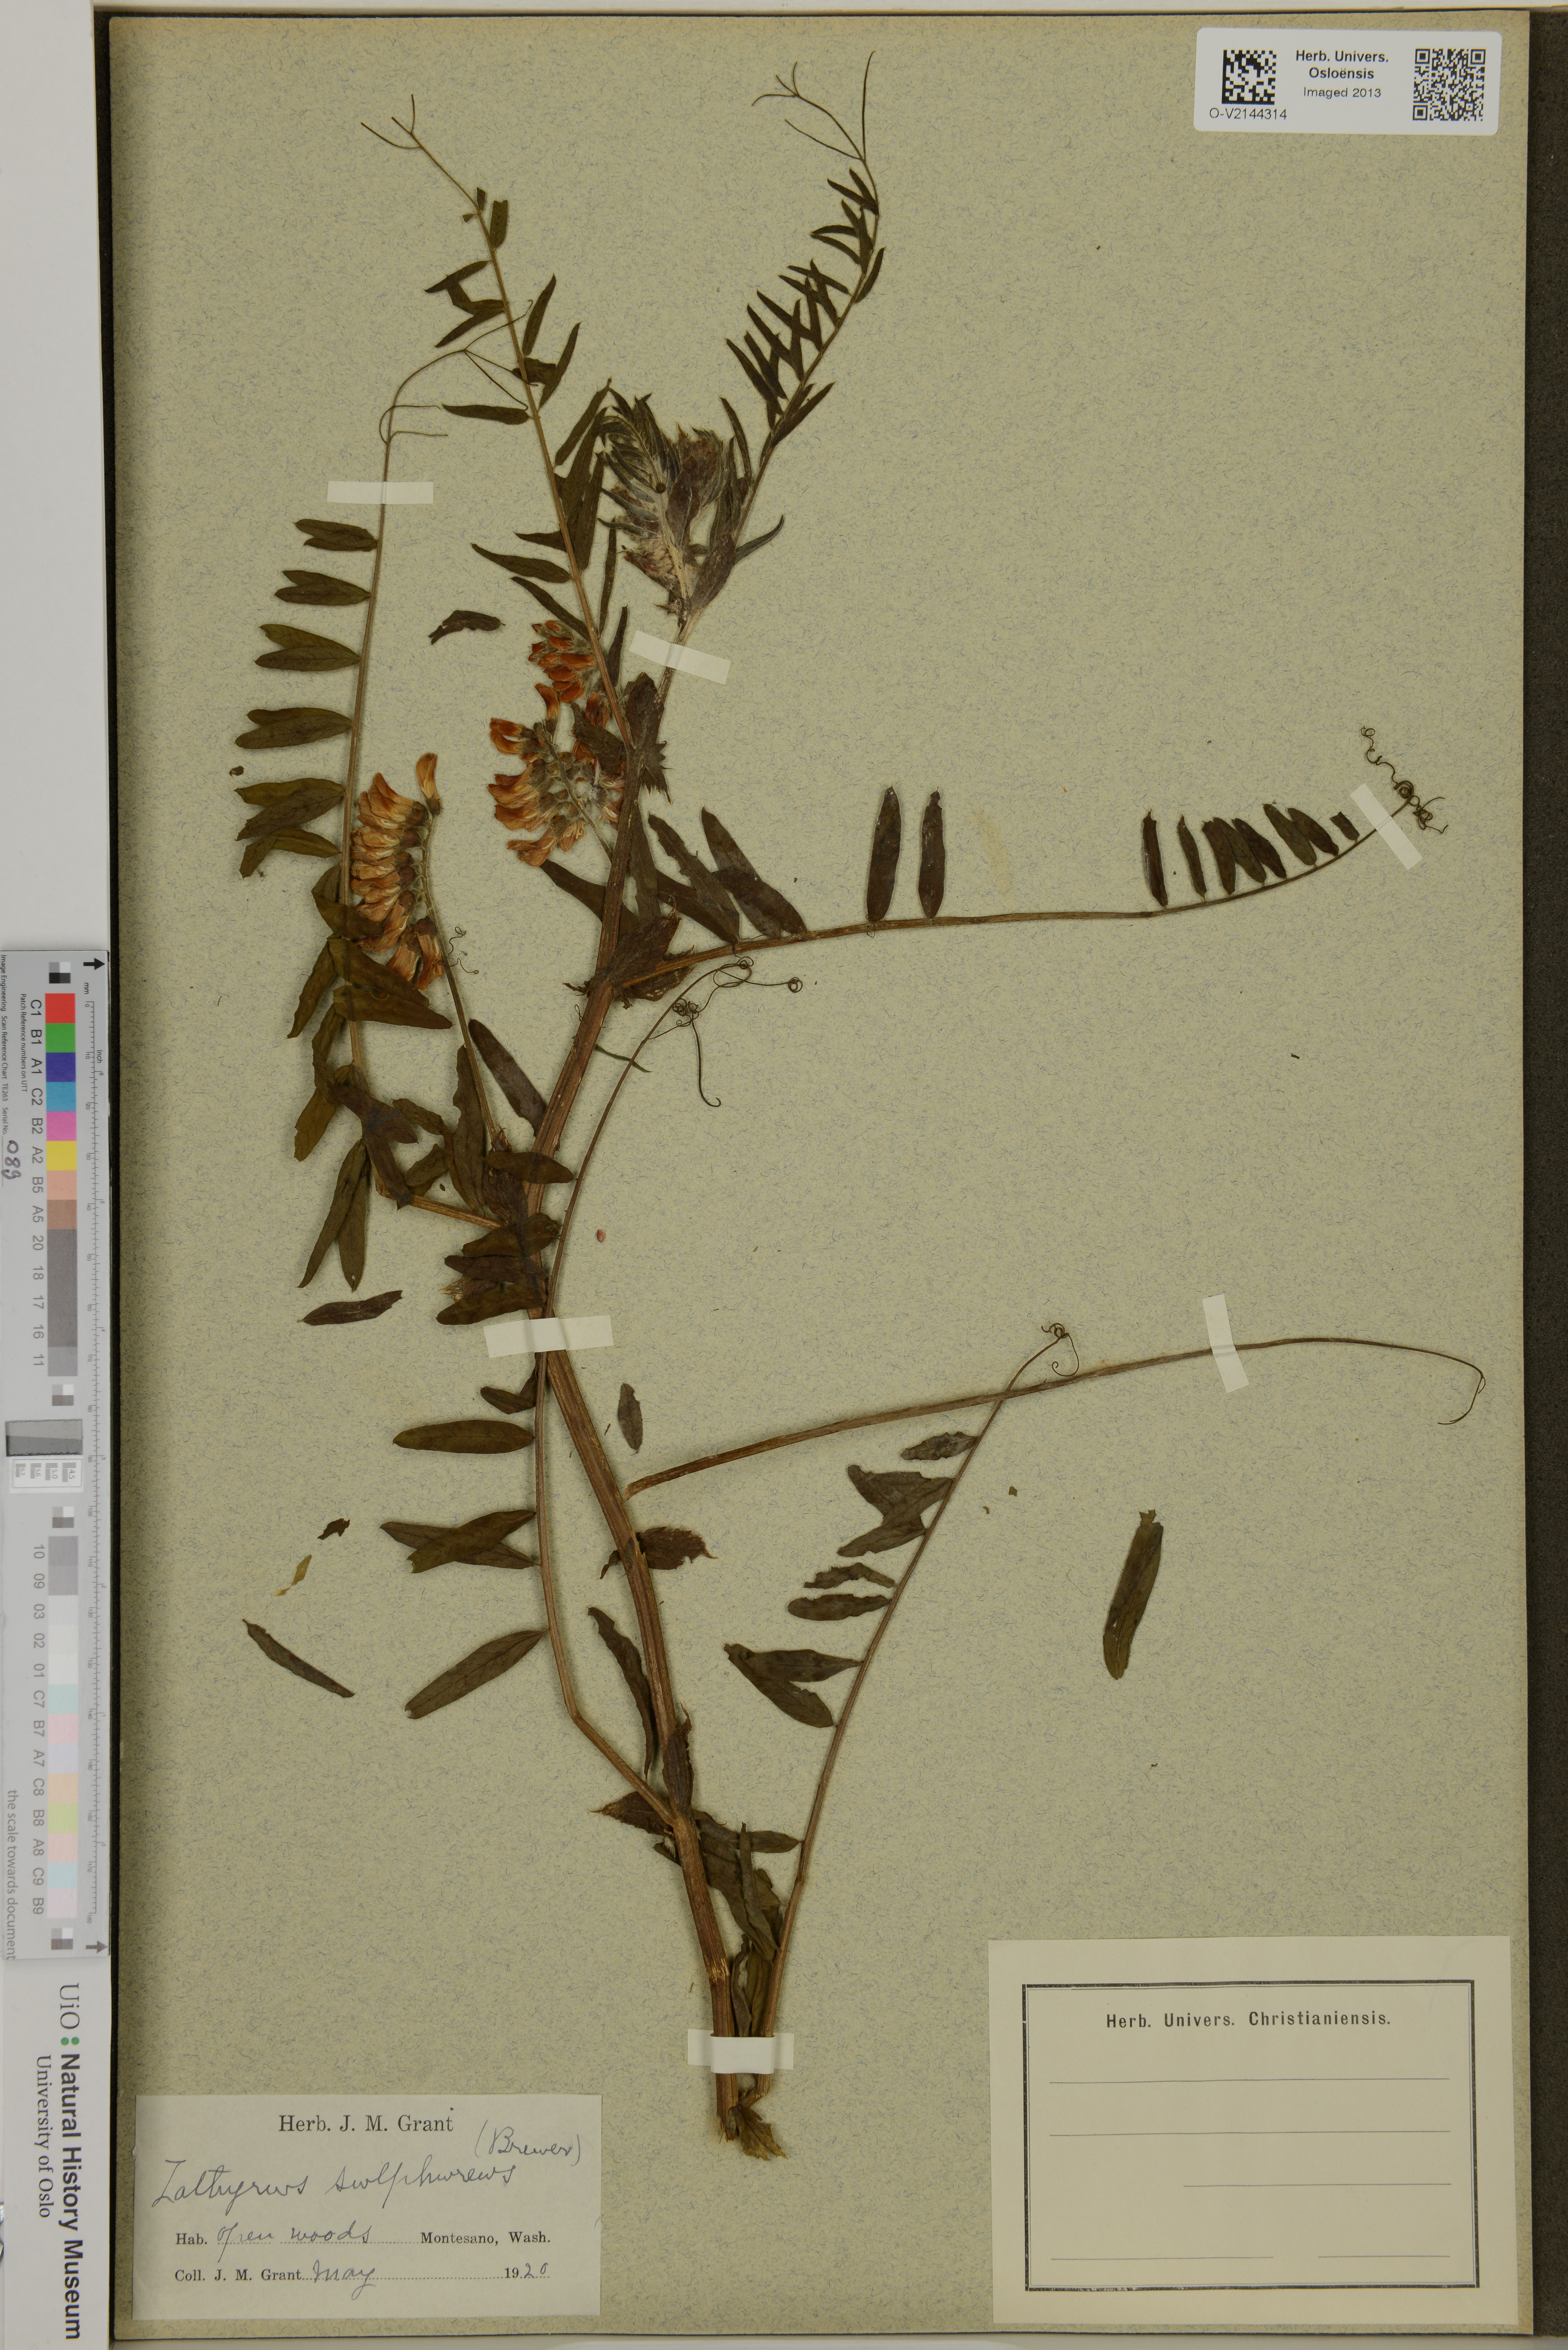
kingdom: Plantae
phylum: Tracheophyta
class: Magnoliopsida
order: Fabales
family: Fabaceae
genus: Lathyrus
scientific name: Lathyrus sulphureus
